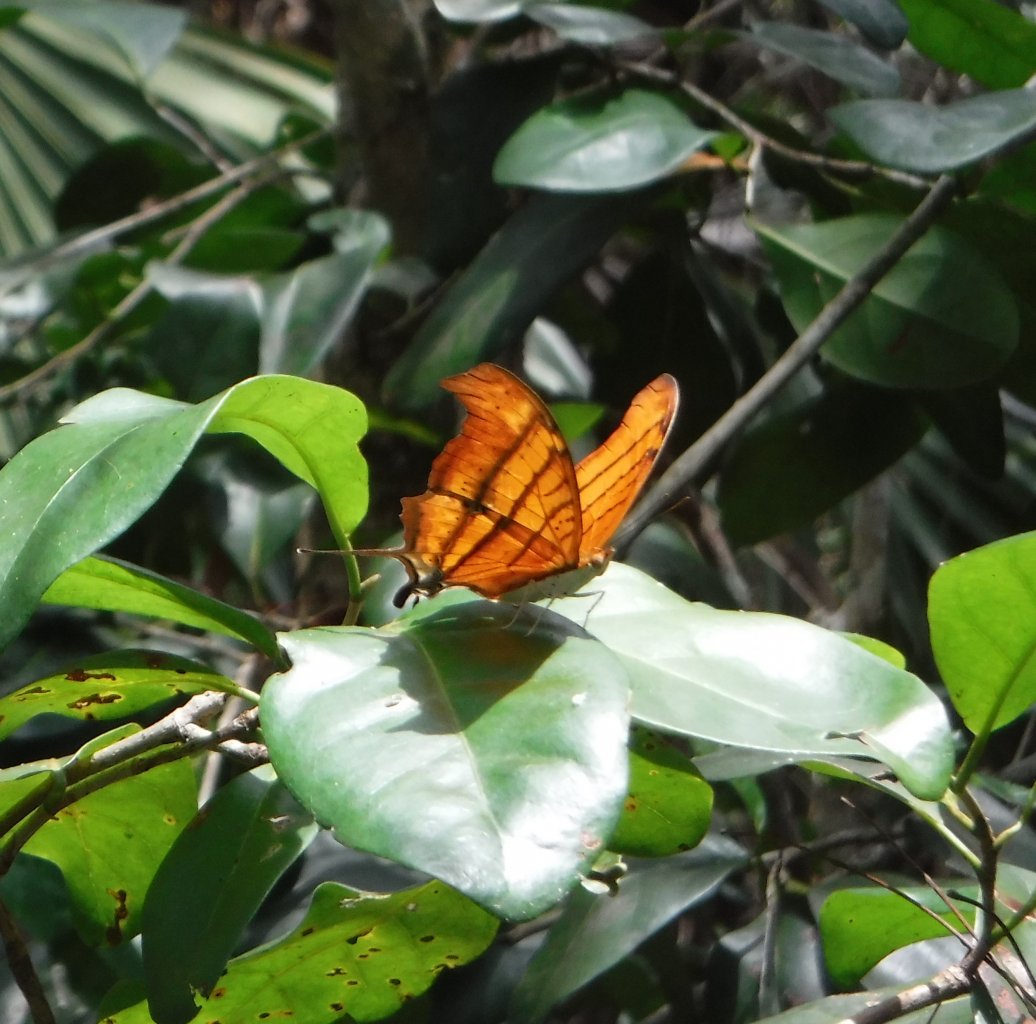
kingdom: Animalia
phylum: Arthropoda
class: Insecta
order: Lepidoptera
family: Nymphalidae
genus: Marpesia
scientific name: Marpesia petreus
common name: Ruddy Daggerwing
